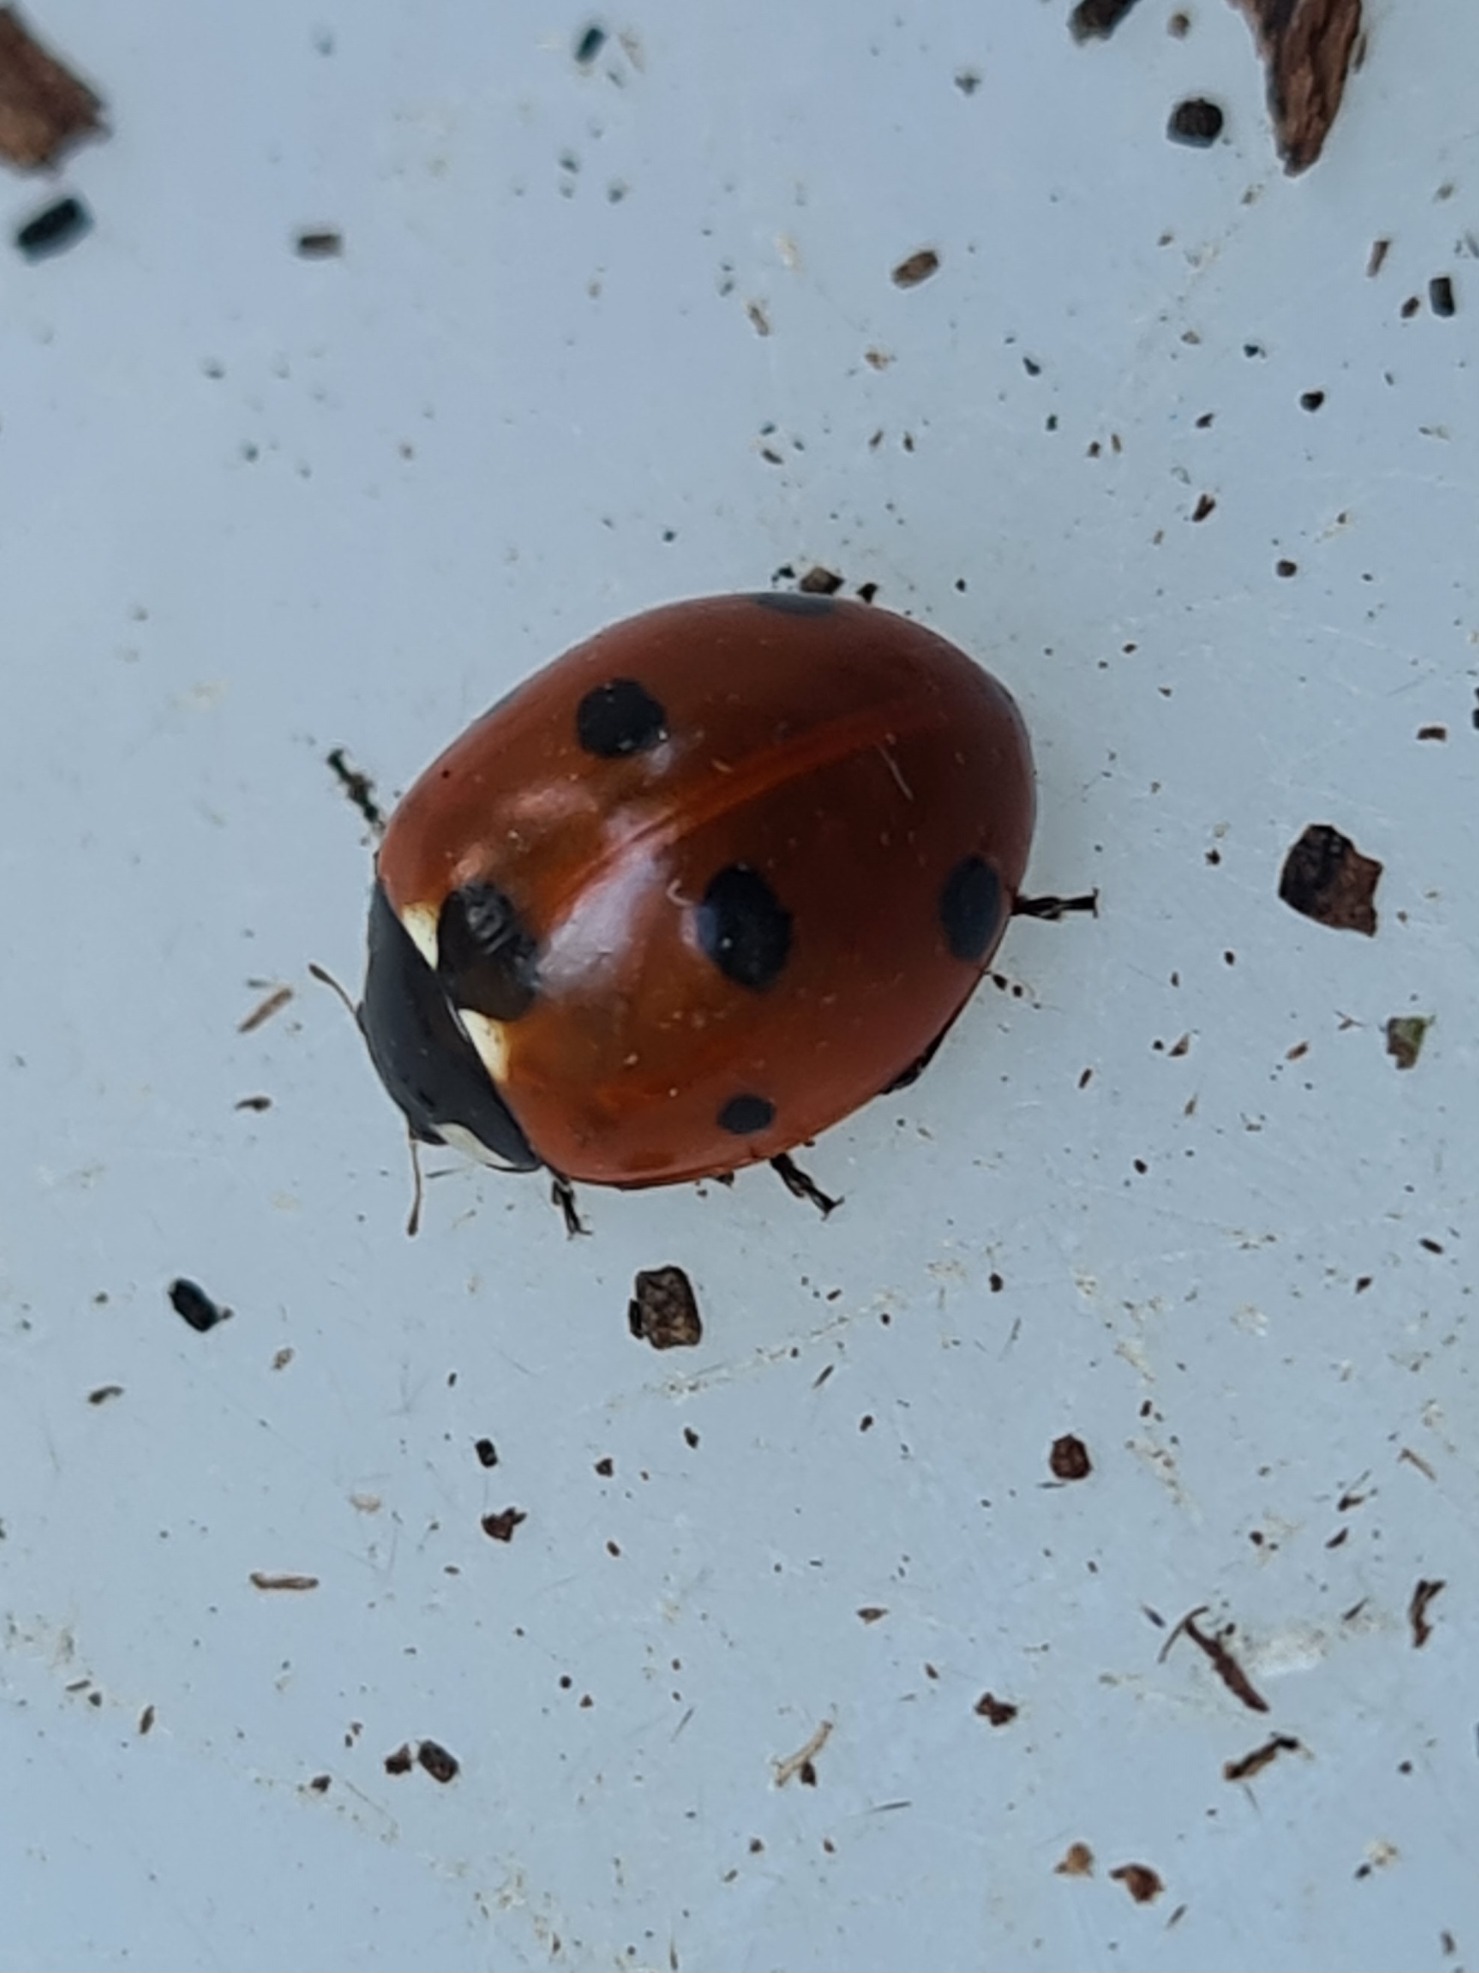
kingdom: Animalia
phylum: Arthropoda
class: Insecta
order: Coleoptera
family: Coccinellidae
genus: Coccinella
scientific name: Coccinella septempunctata
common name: Syvplettet mariehøne
